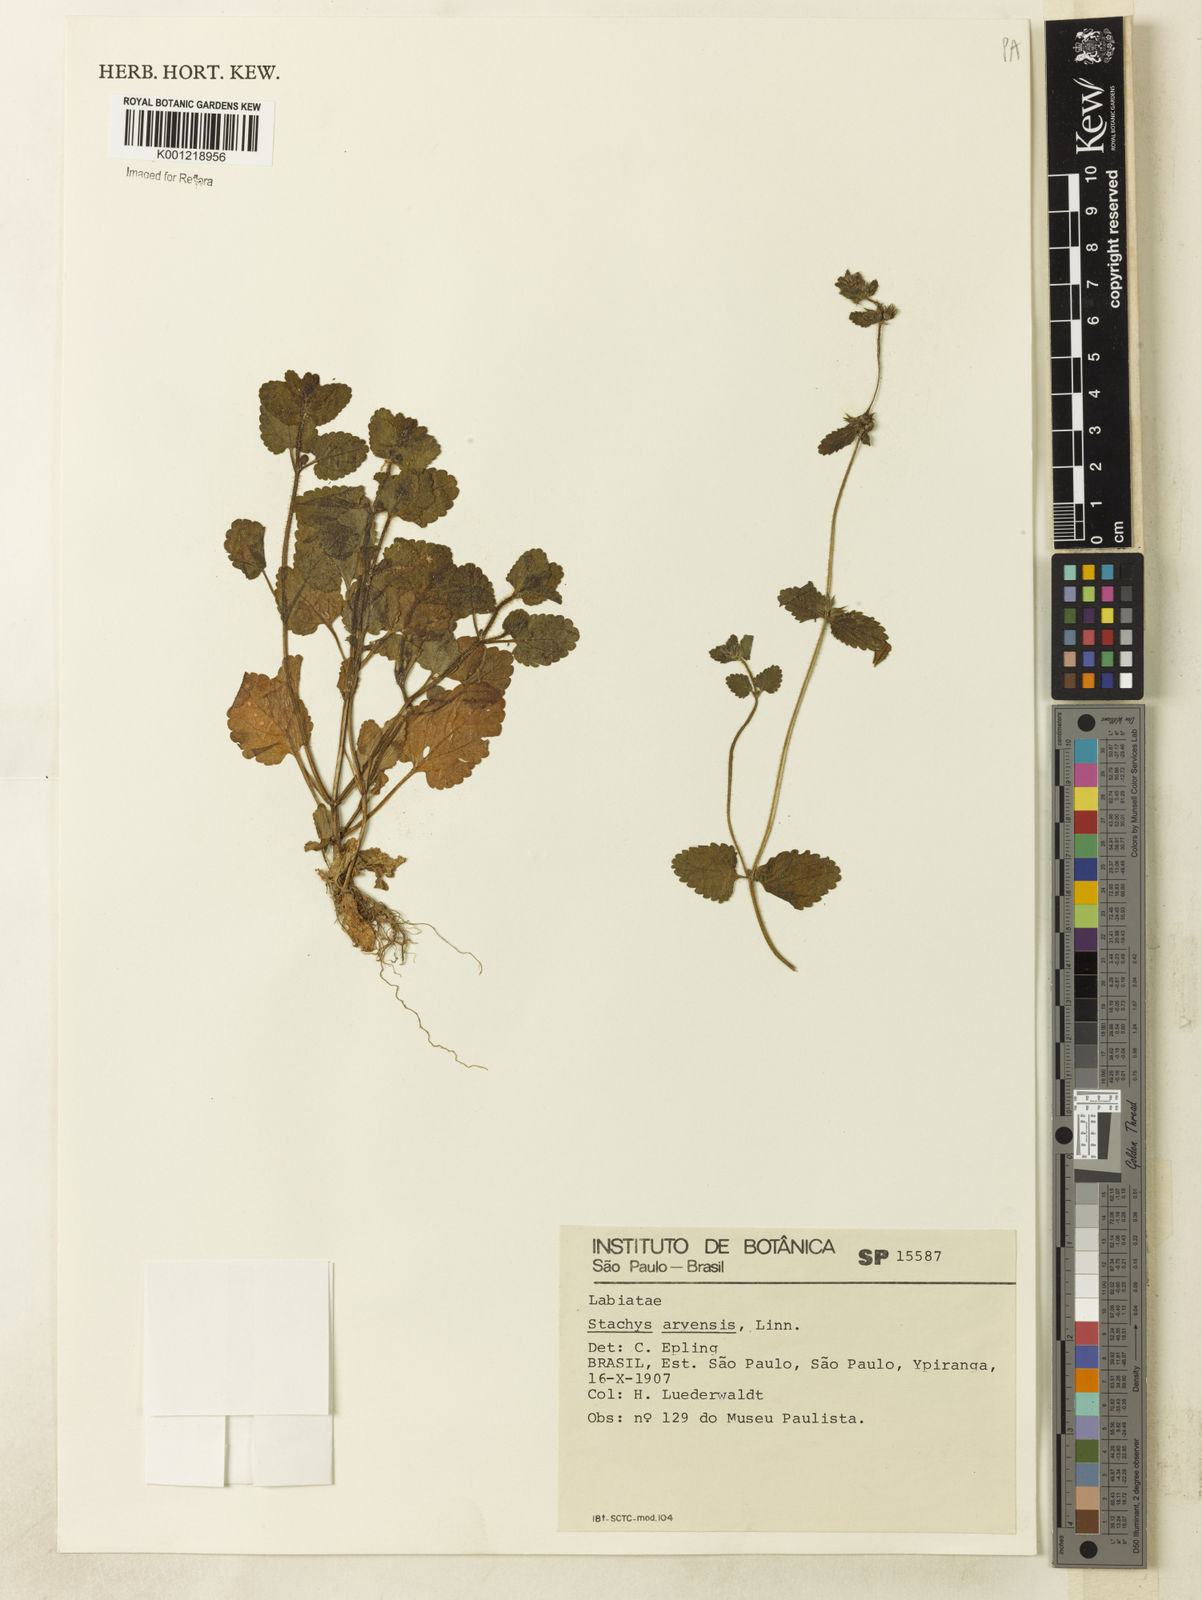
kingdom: Plantae
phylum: Tracheophyta
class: Magnoliopsida
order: Lamiales
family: Lamiaceae
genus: Stachys
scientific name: Stachys arvensis
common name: Field woundwort
